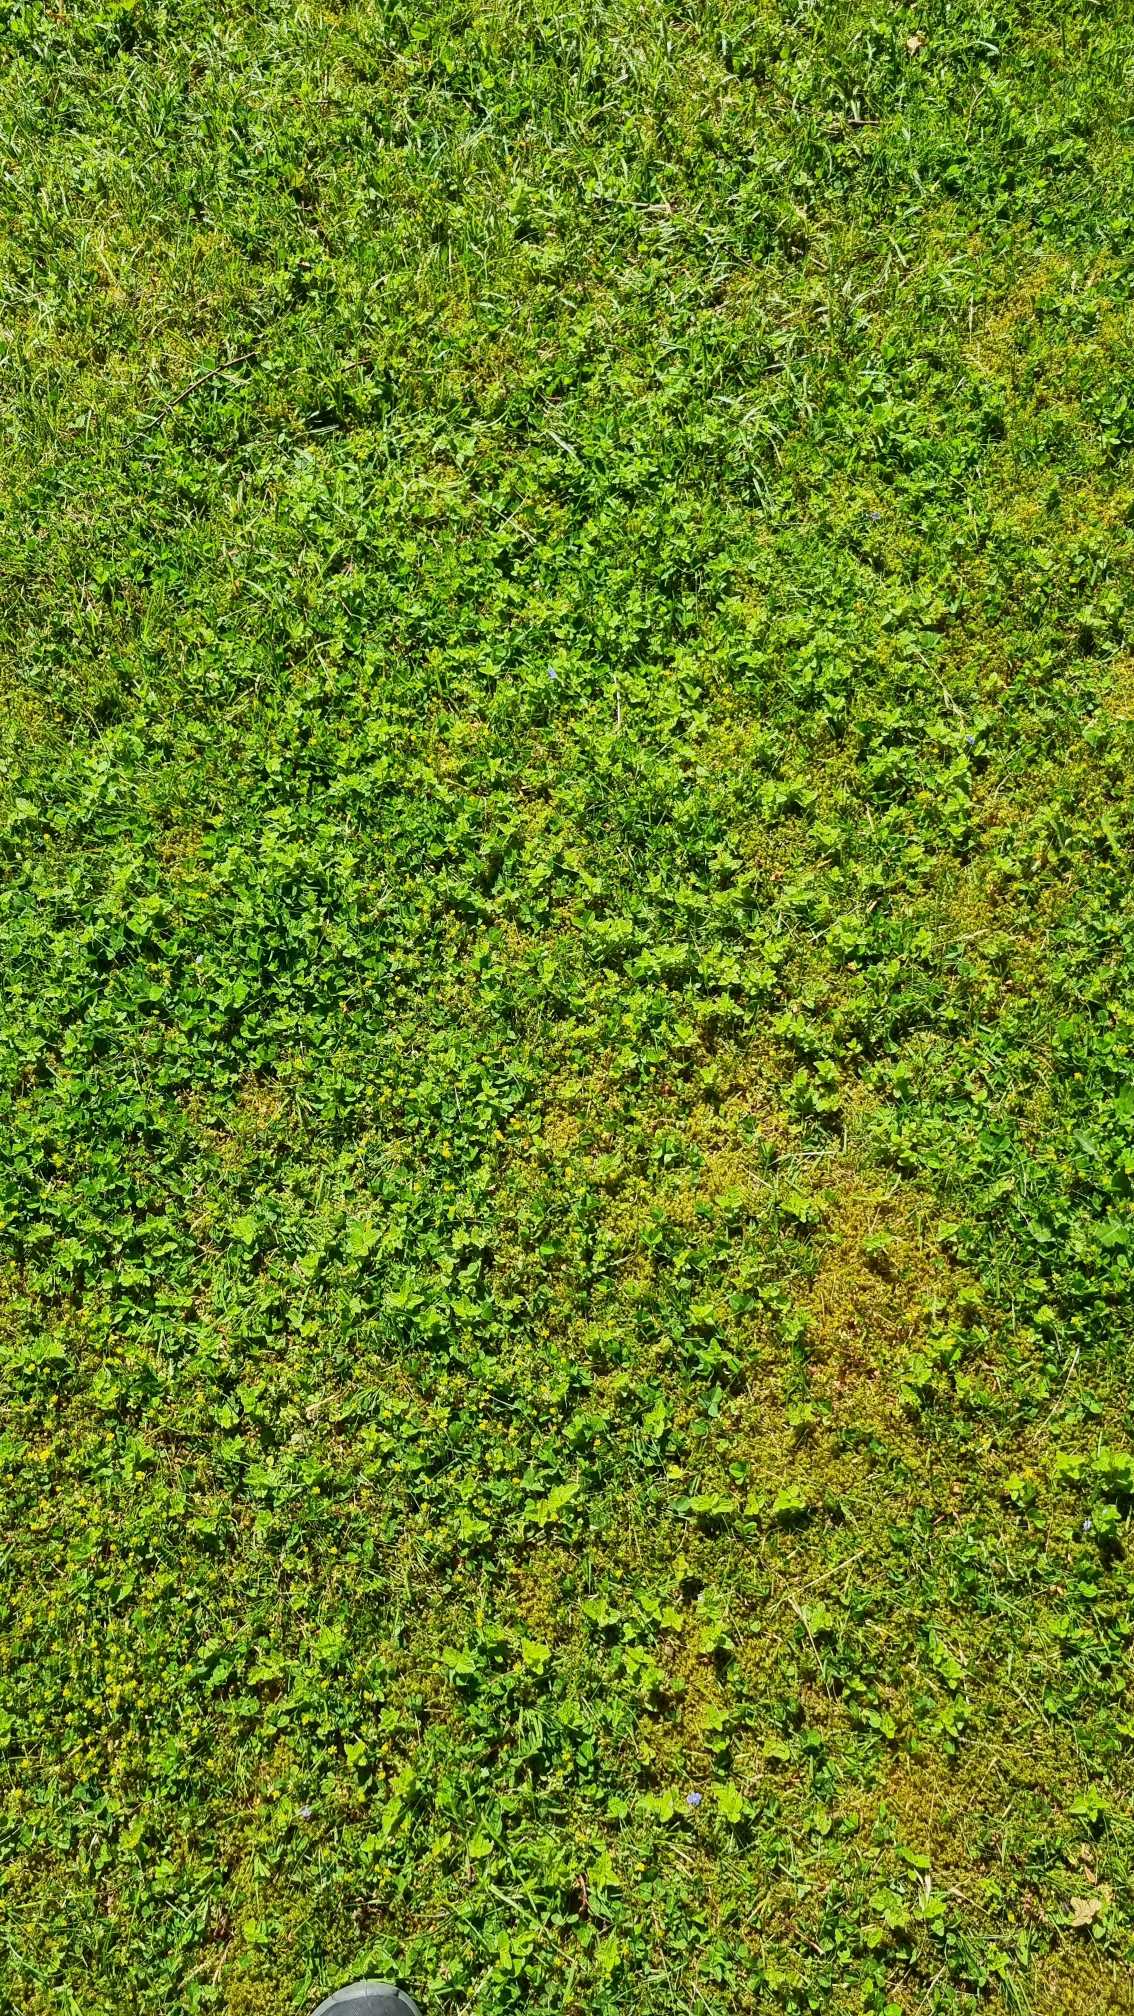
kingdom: Plantae
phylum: Tracheophyta
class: Magnoliopsida
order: Lamiales
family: Plantaginaceae
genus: Veronica
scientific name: Veronica chamaedrys
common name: Tveskægget ærenpris
